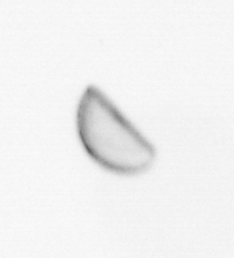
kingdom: Chromista
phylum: Ochrophyta
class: Bacillariophyceae
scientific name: Bacillariophyceae
